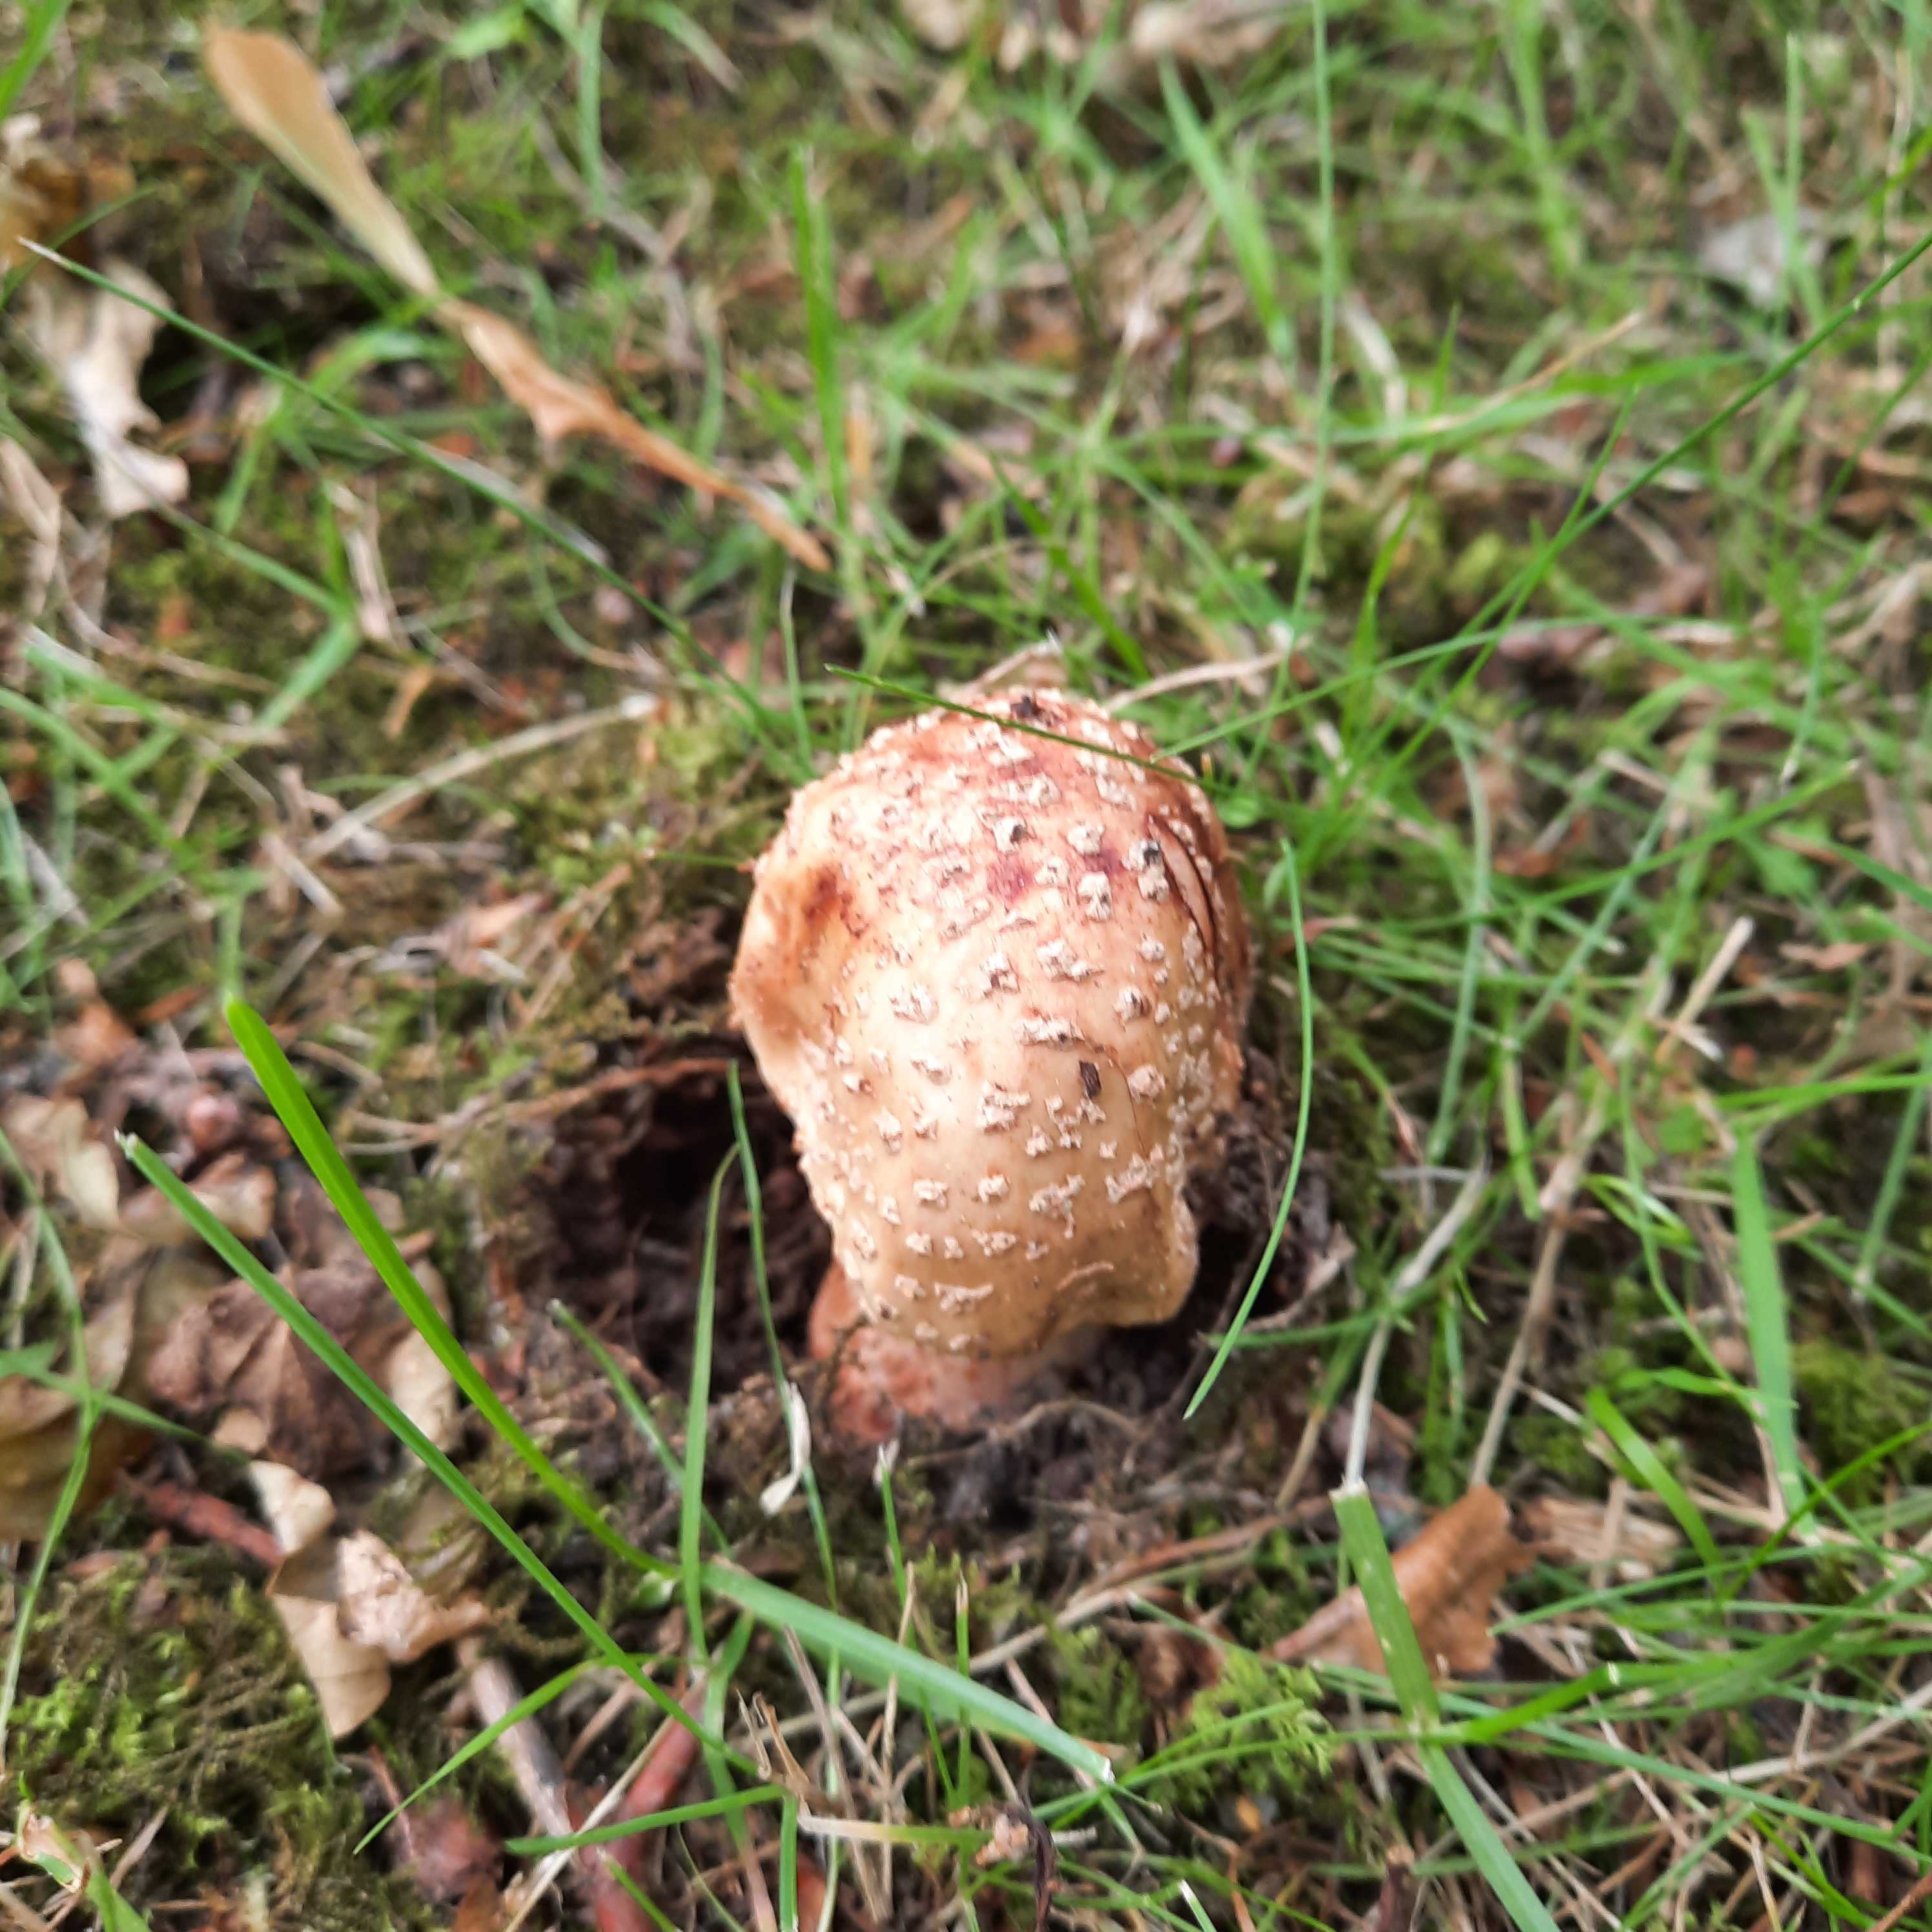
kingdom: Fungi
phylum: Basidiomycota
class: Agaricomycetes
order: Agaricales
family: Amanitaceae
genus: Amanita
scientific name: Amanita rubescens
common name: rødmende fluesvamp
